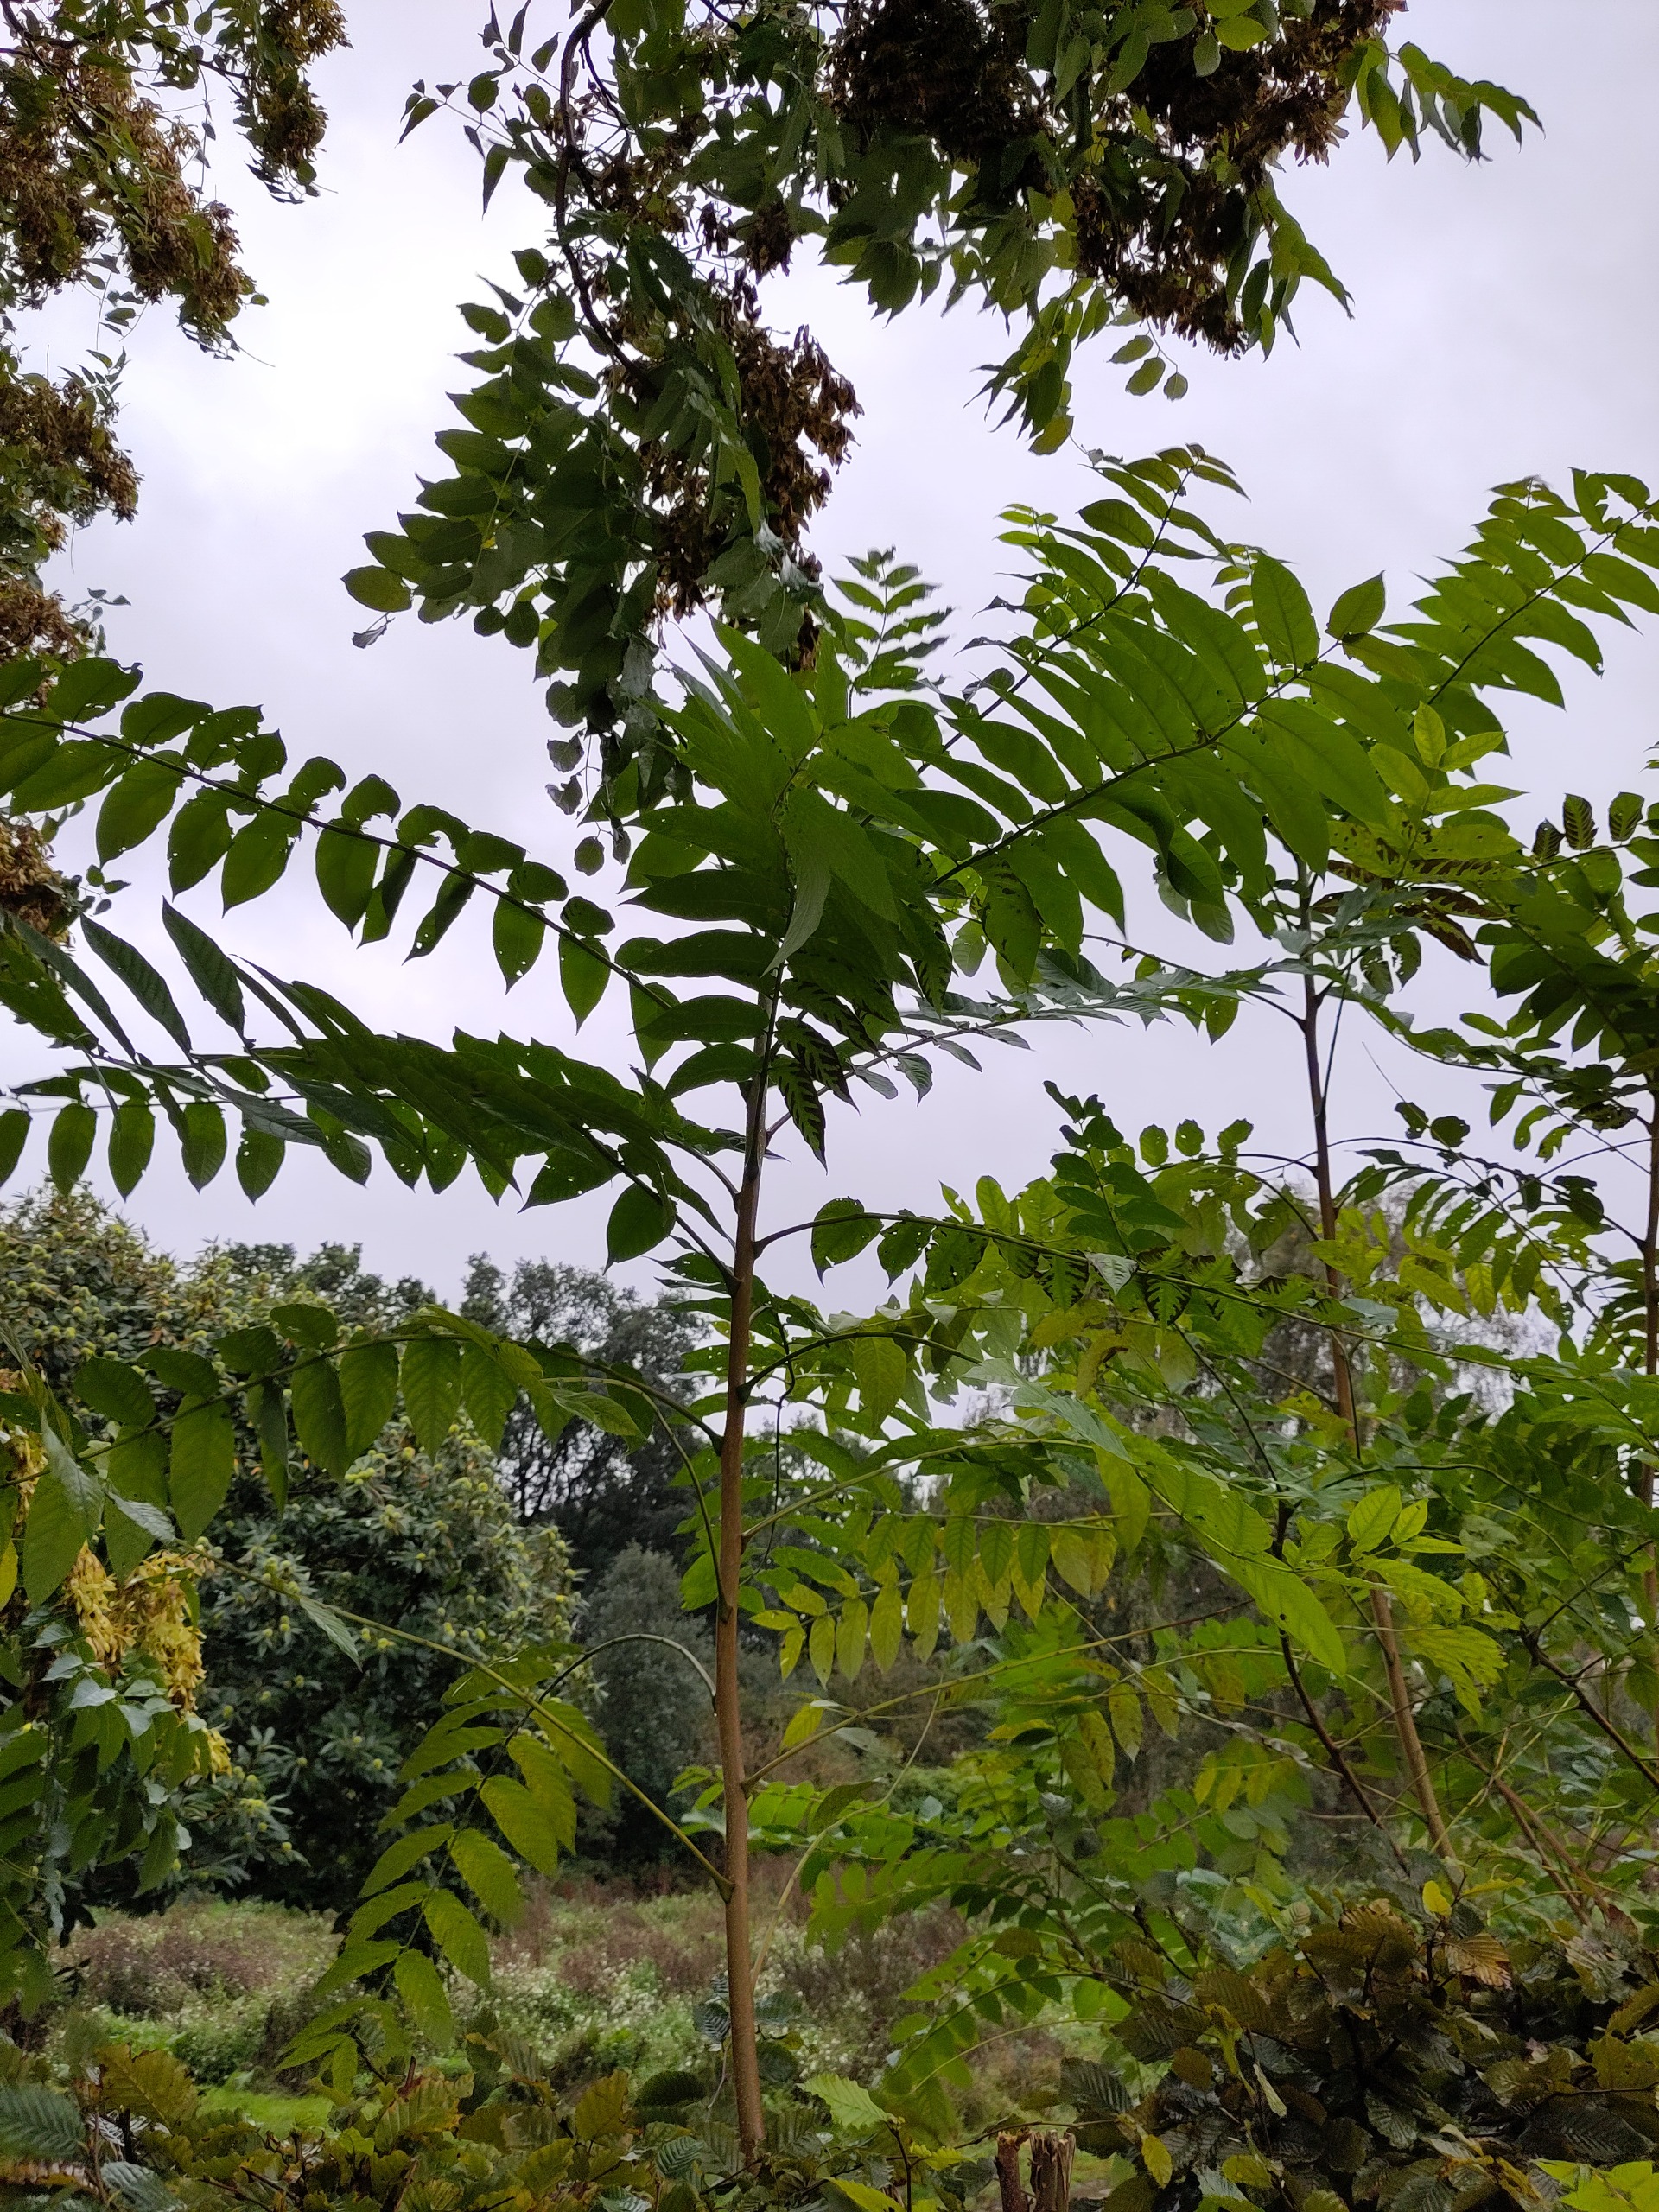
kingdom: Plantae
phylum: Tracheophyta
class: Magnoliopsida
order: Sapindales
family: Simaroubaceae
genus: Ailanthus
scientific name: Ailanthus altissima
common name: Skyrækker
